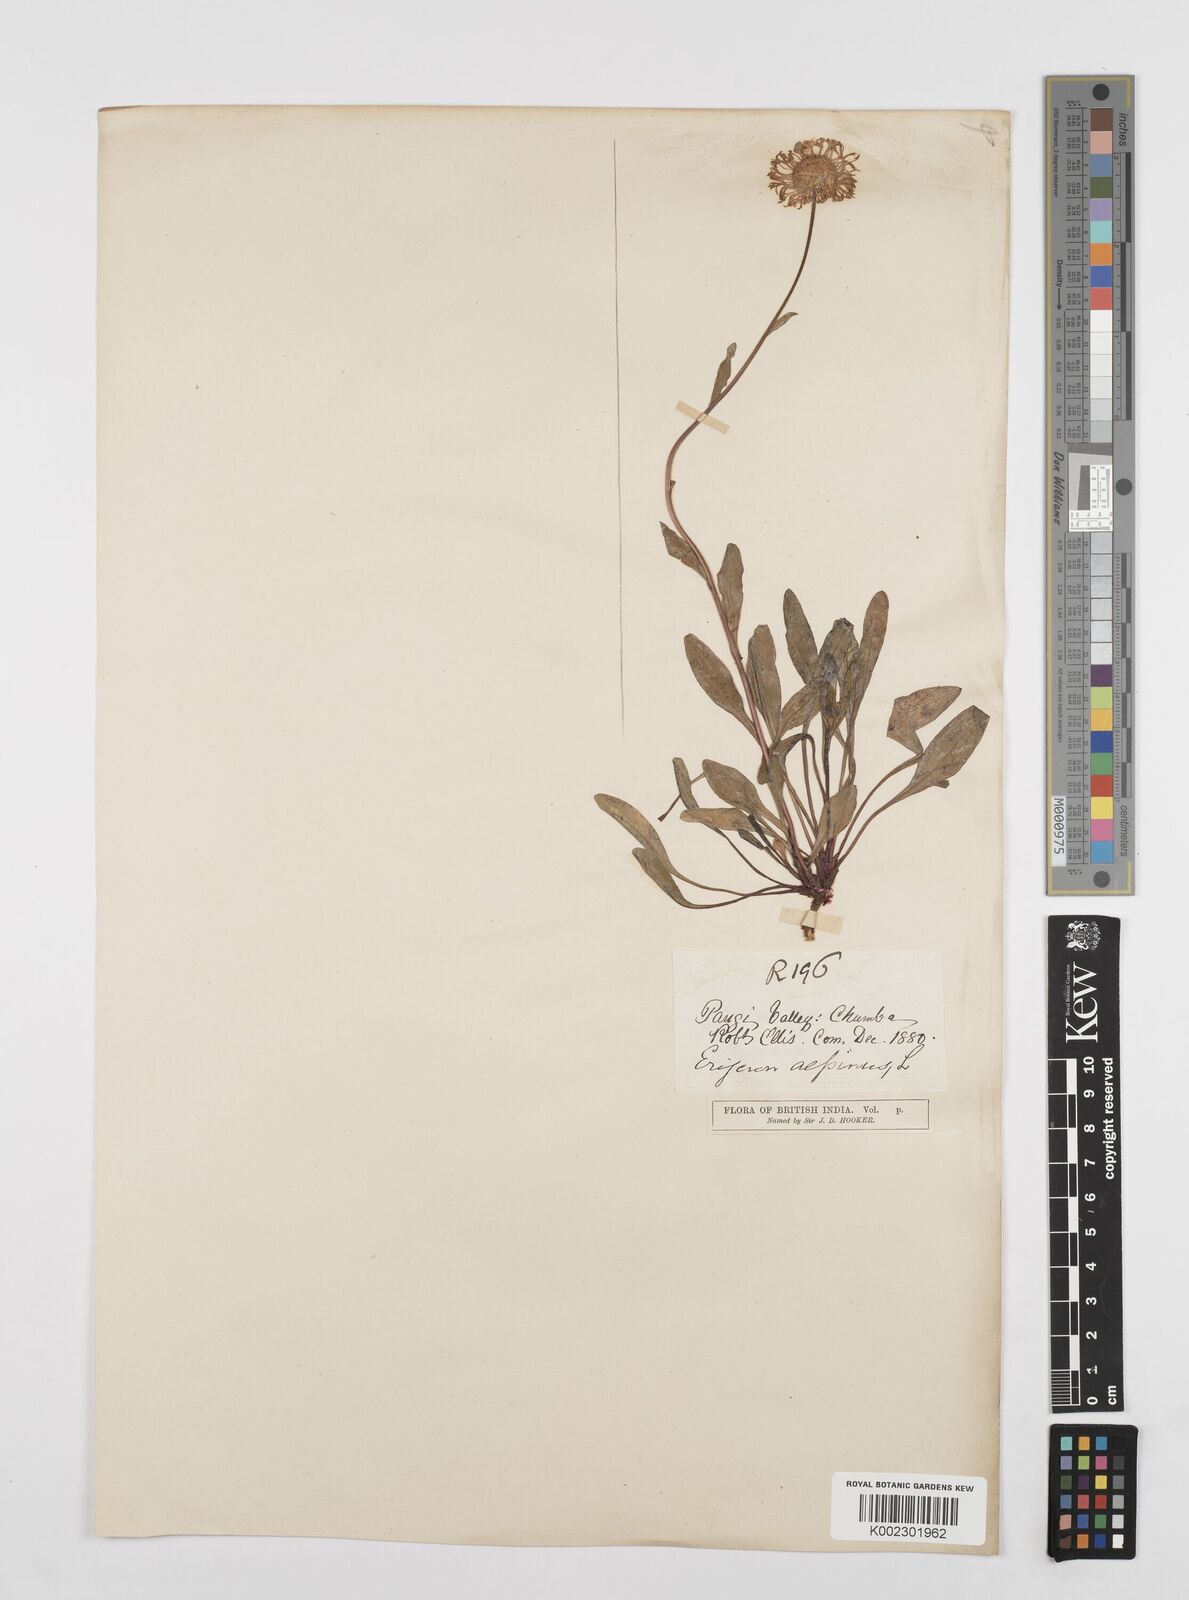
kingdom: Plantae
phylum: Tracheophyta
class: Magnoliopsida
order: Asterales
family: Asteraceae
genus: Erigeron
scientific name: Erigeron alpinus
